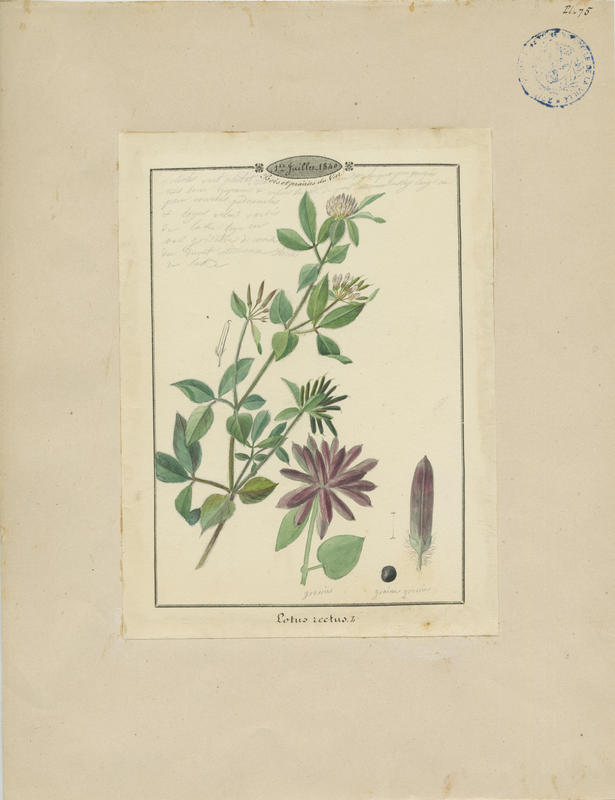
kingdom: Plantae
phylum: Tracheophyta
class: Magnoliopsida
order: Fabales
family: Fabaceae
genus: Lotus
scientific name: Lotus rectus
